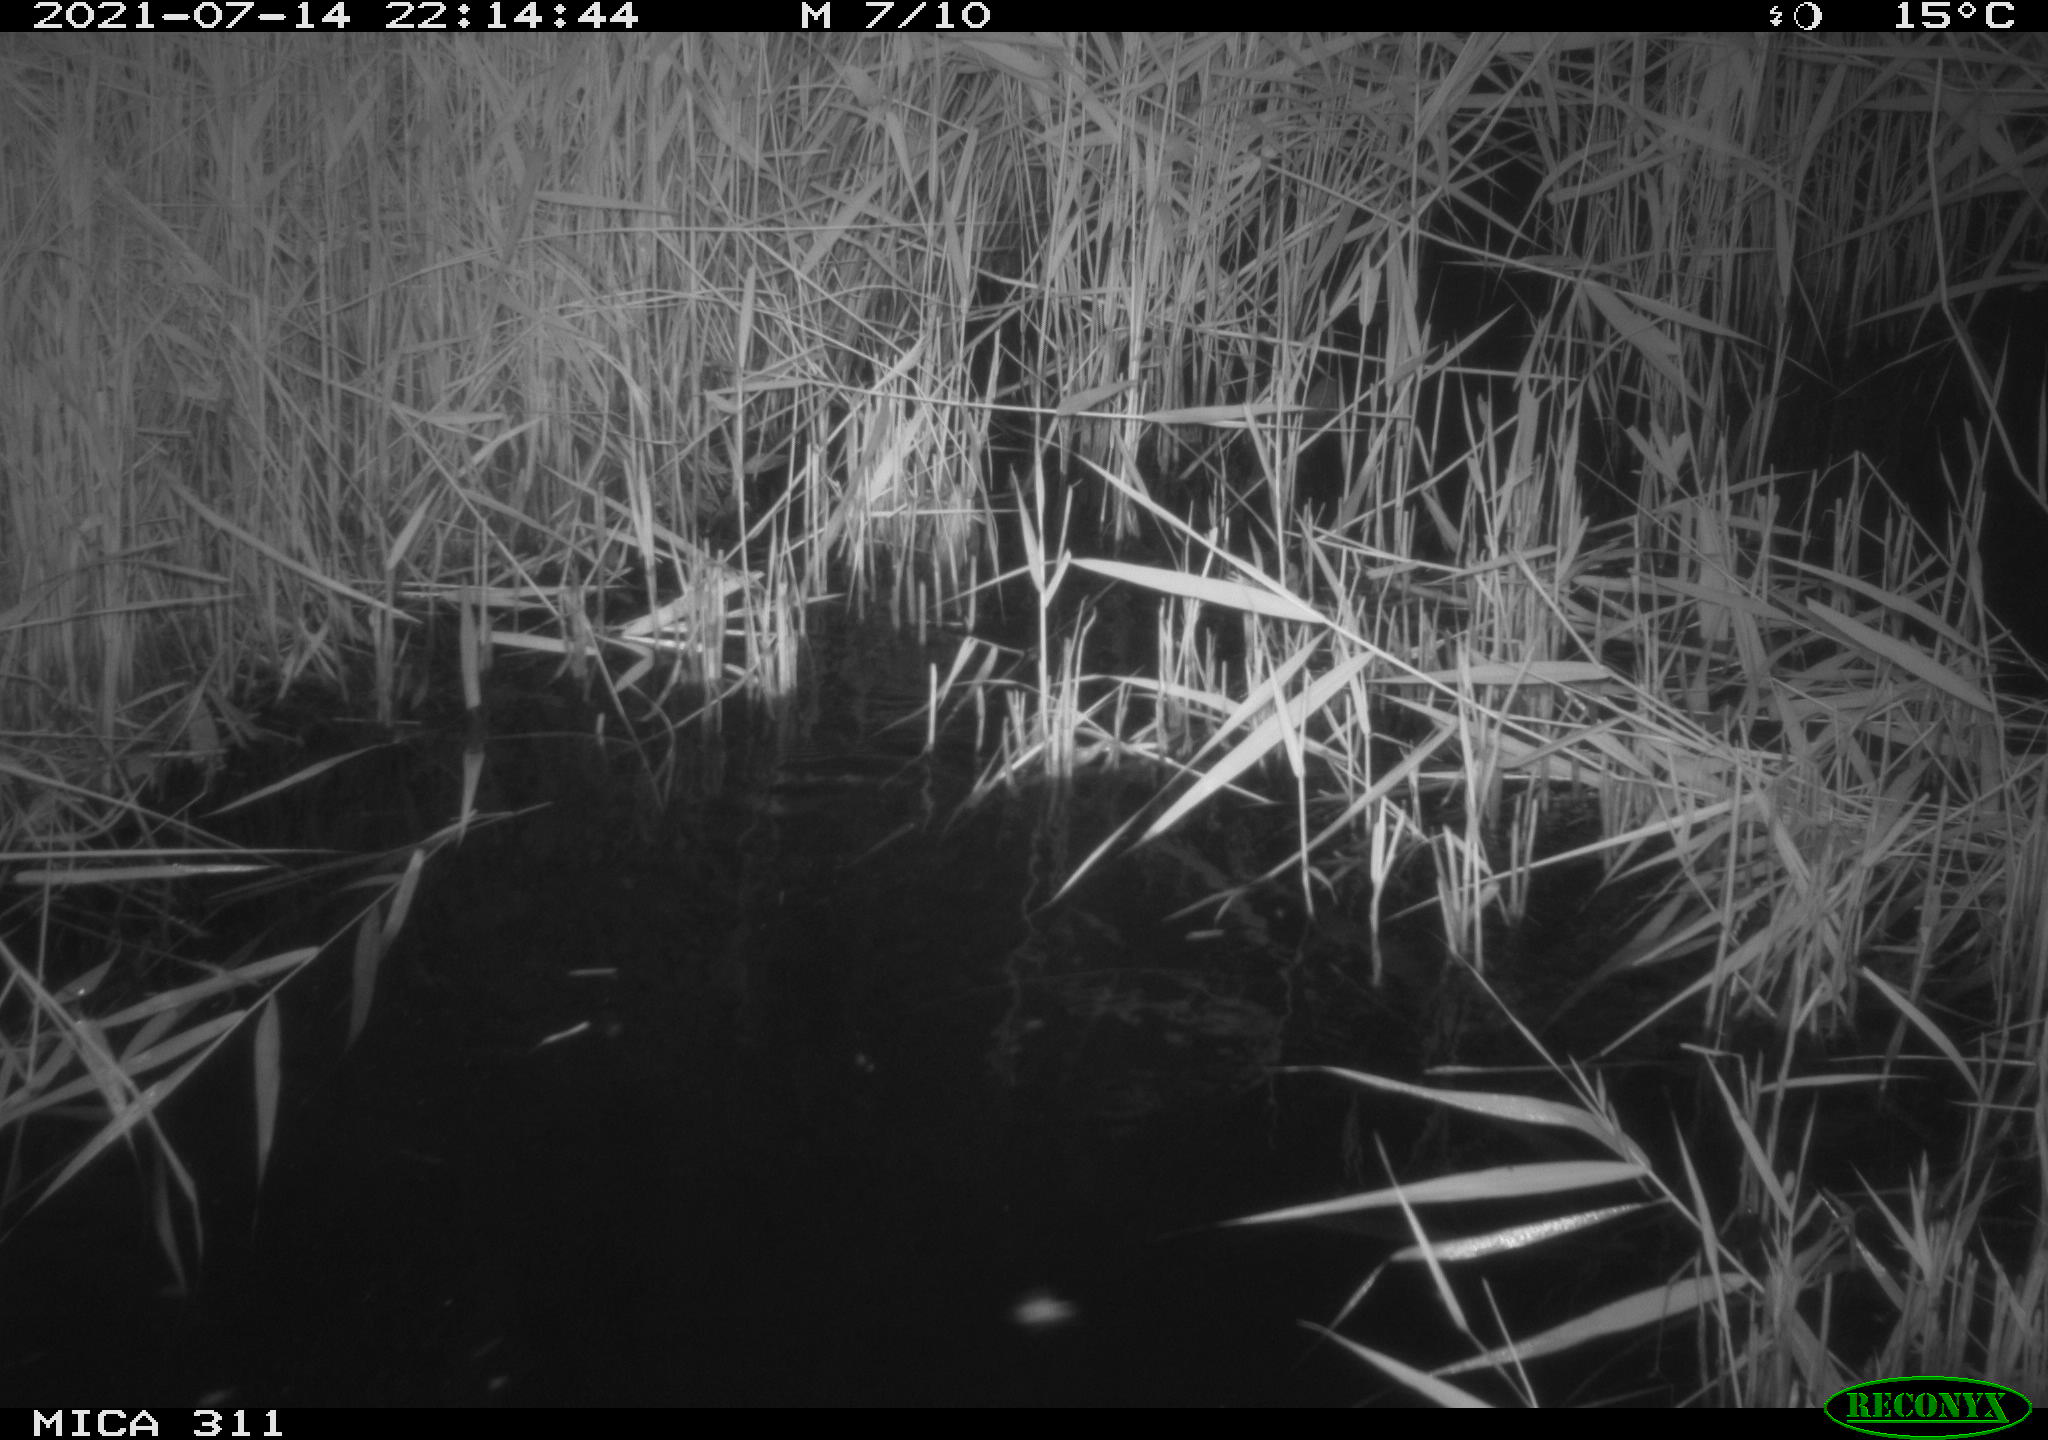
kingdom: Animalia
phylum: Chordata
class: Mammalia
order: Rodentia
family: Muridae
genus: Rattus
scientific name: Rattus norvegicus
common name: Brown rat
